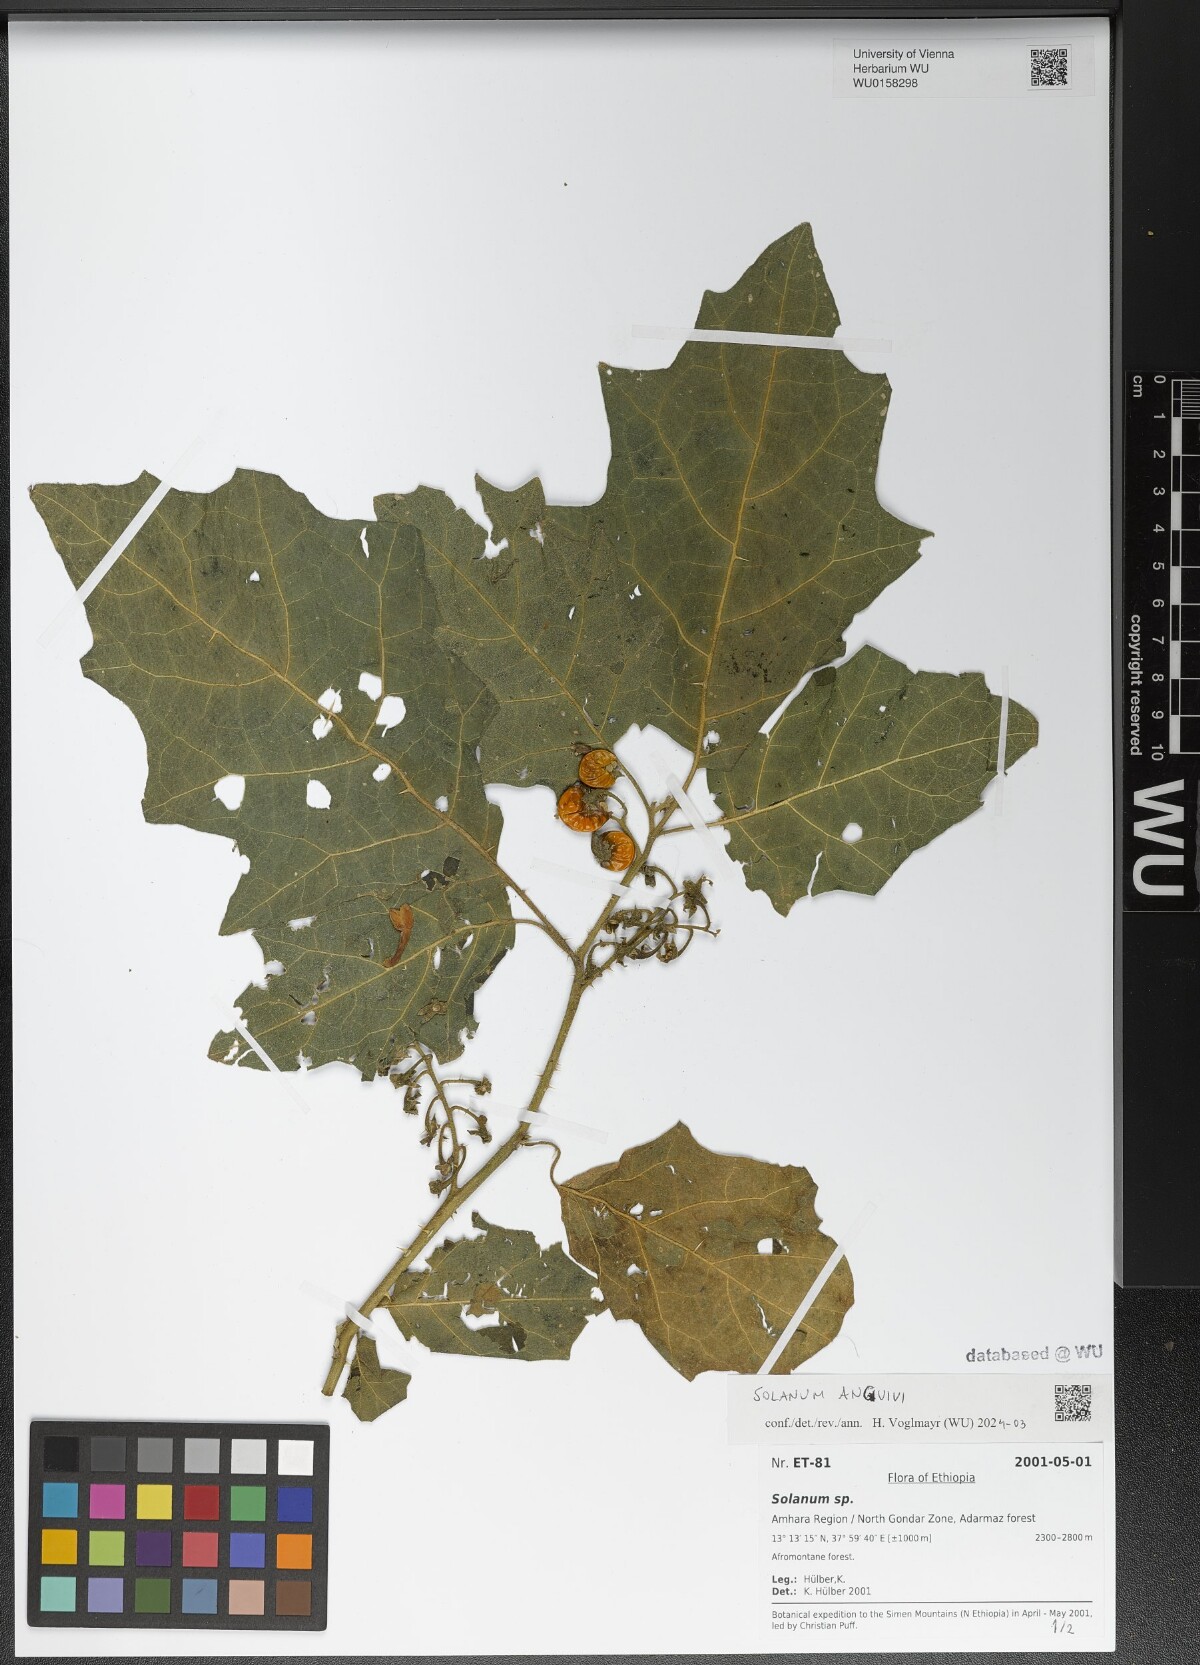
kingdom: Plantae
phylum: Tracheophyta
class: Magnoliopsida
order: Solanales
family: Solanaceae
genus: Solanum
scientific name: Solanum anguivi
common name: Forest bitterberry
